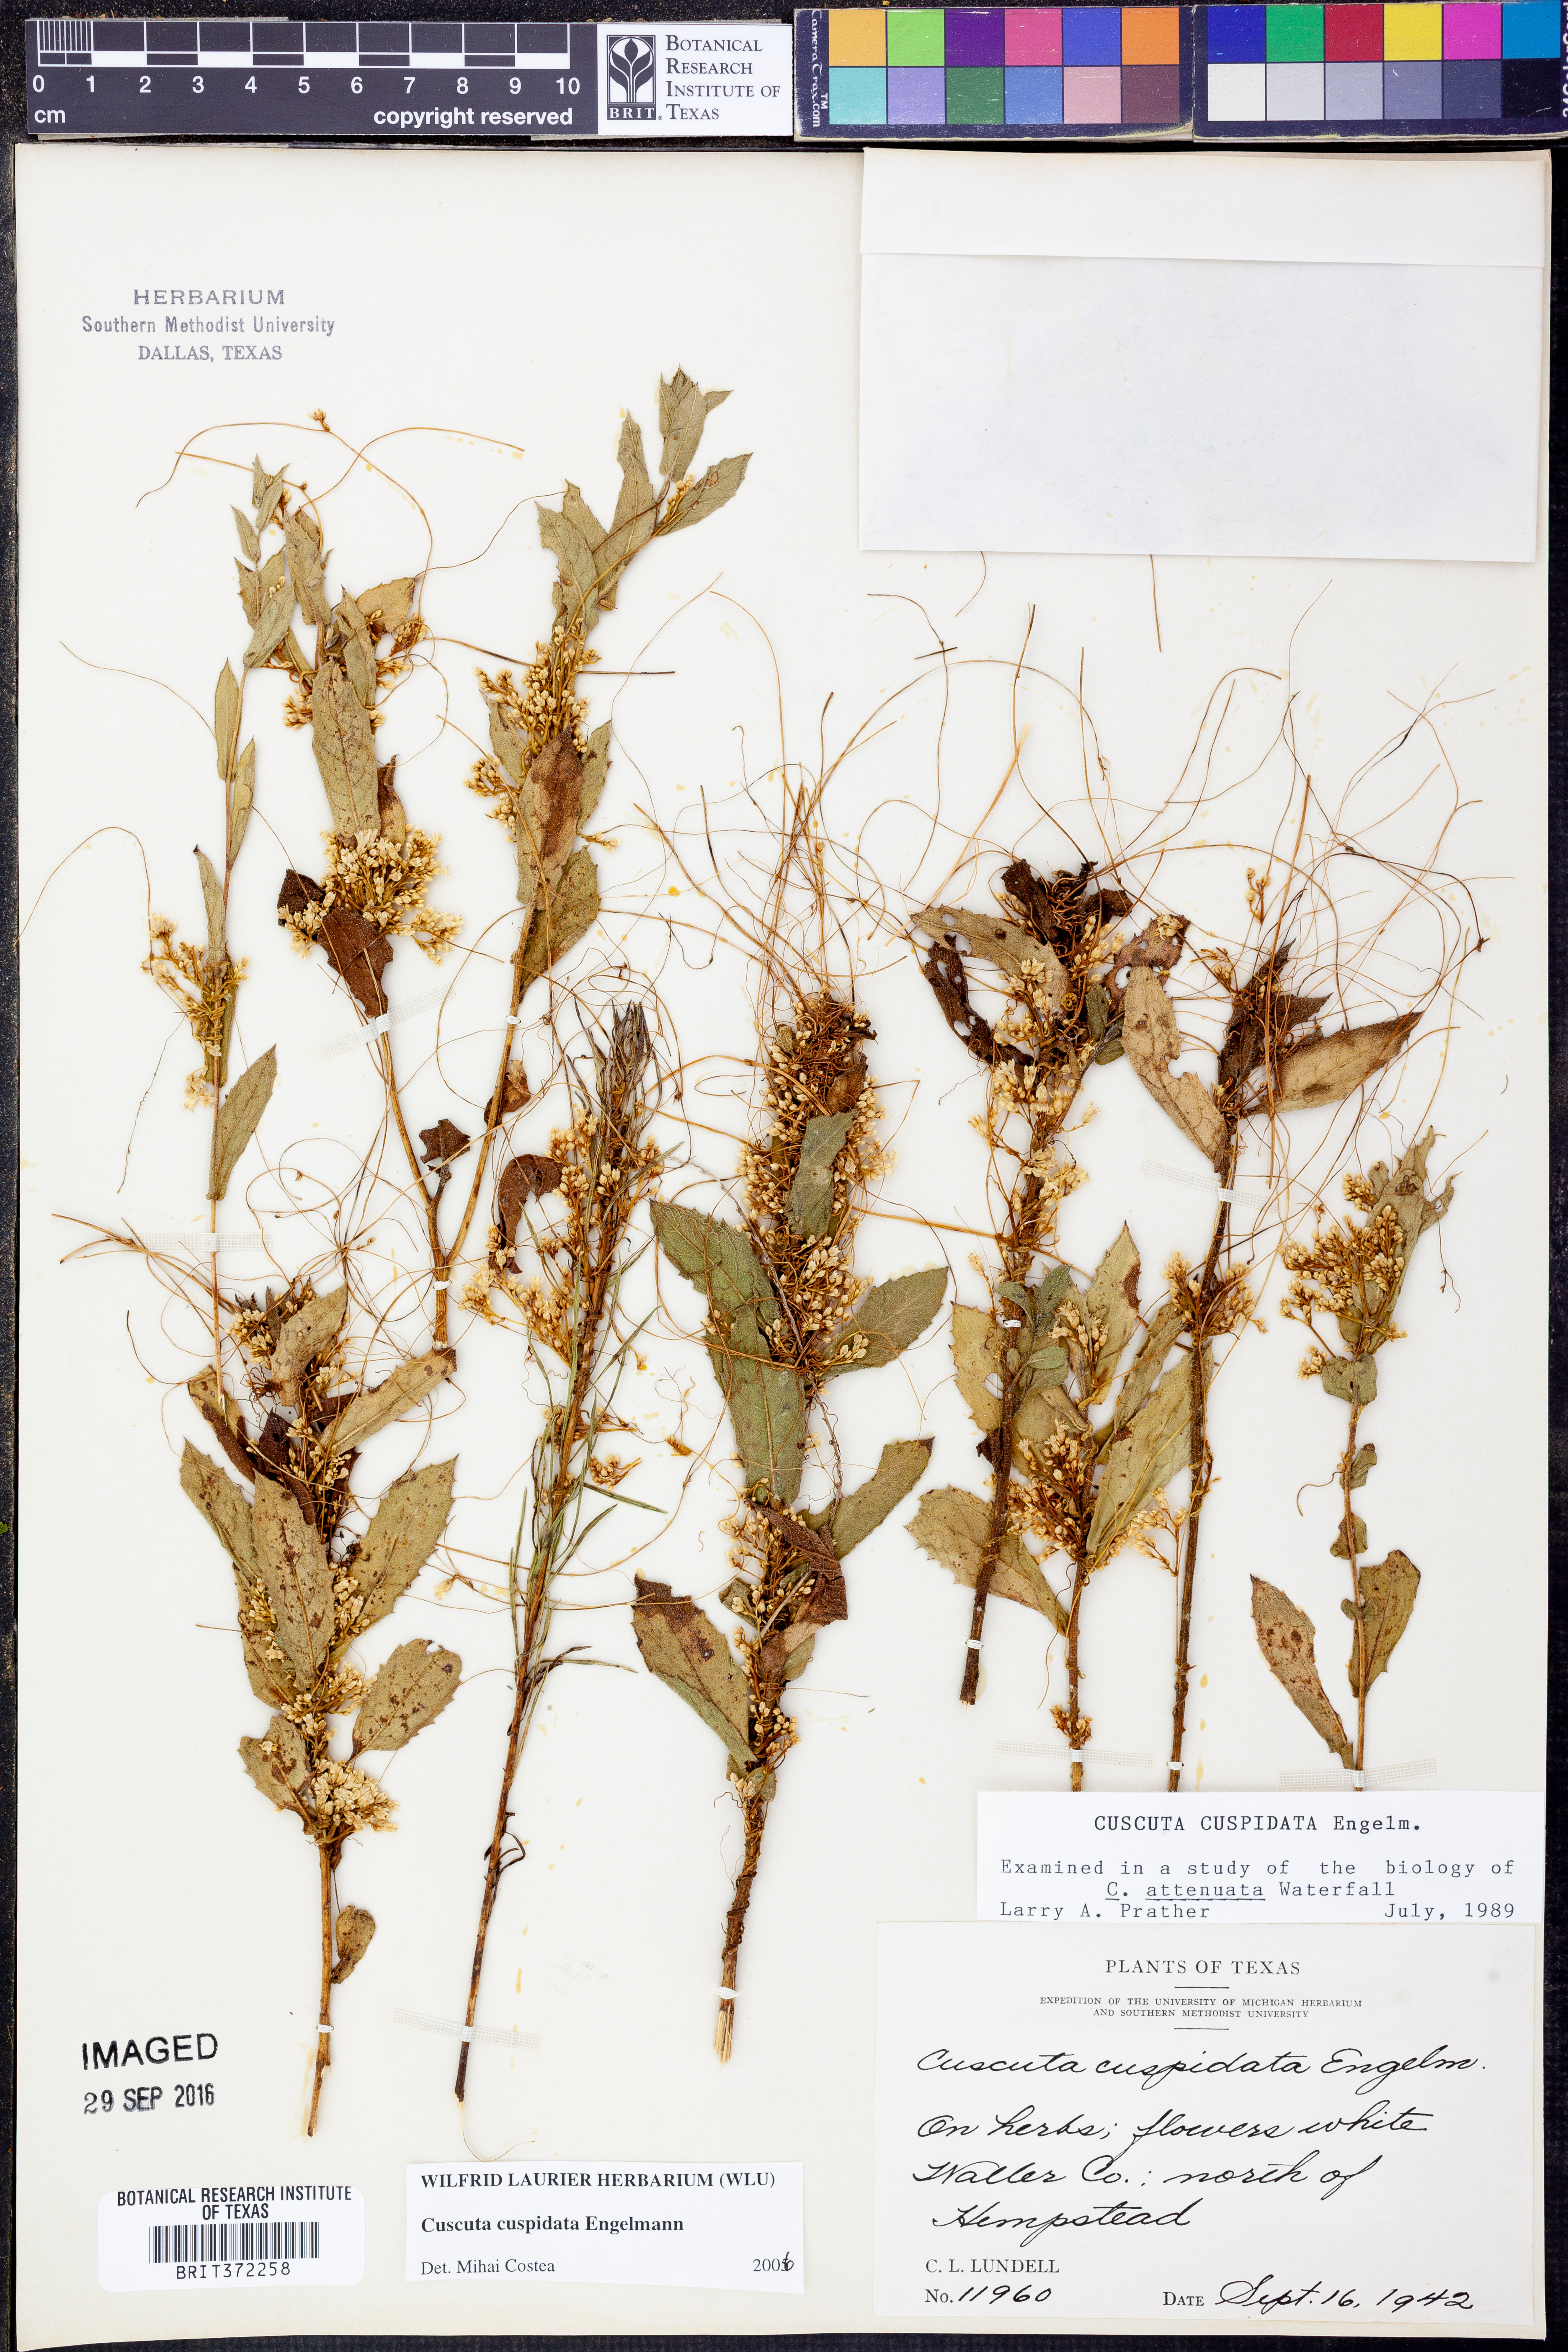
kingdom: Plantae
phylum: Tracheophyta
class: Magnoliopsida
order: Solanales
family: Convolvulaceae
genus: Cuscuta
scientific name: Cuscuta cuspidata
